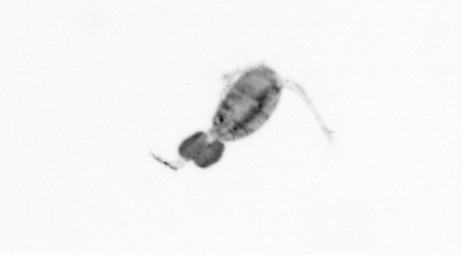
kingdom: Animalia
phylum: Arthropoda
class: Copepoda
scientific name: Copepoda
